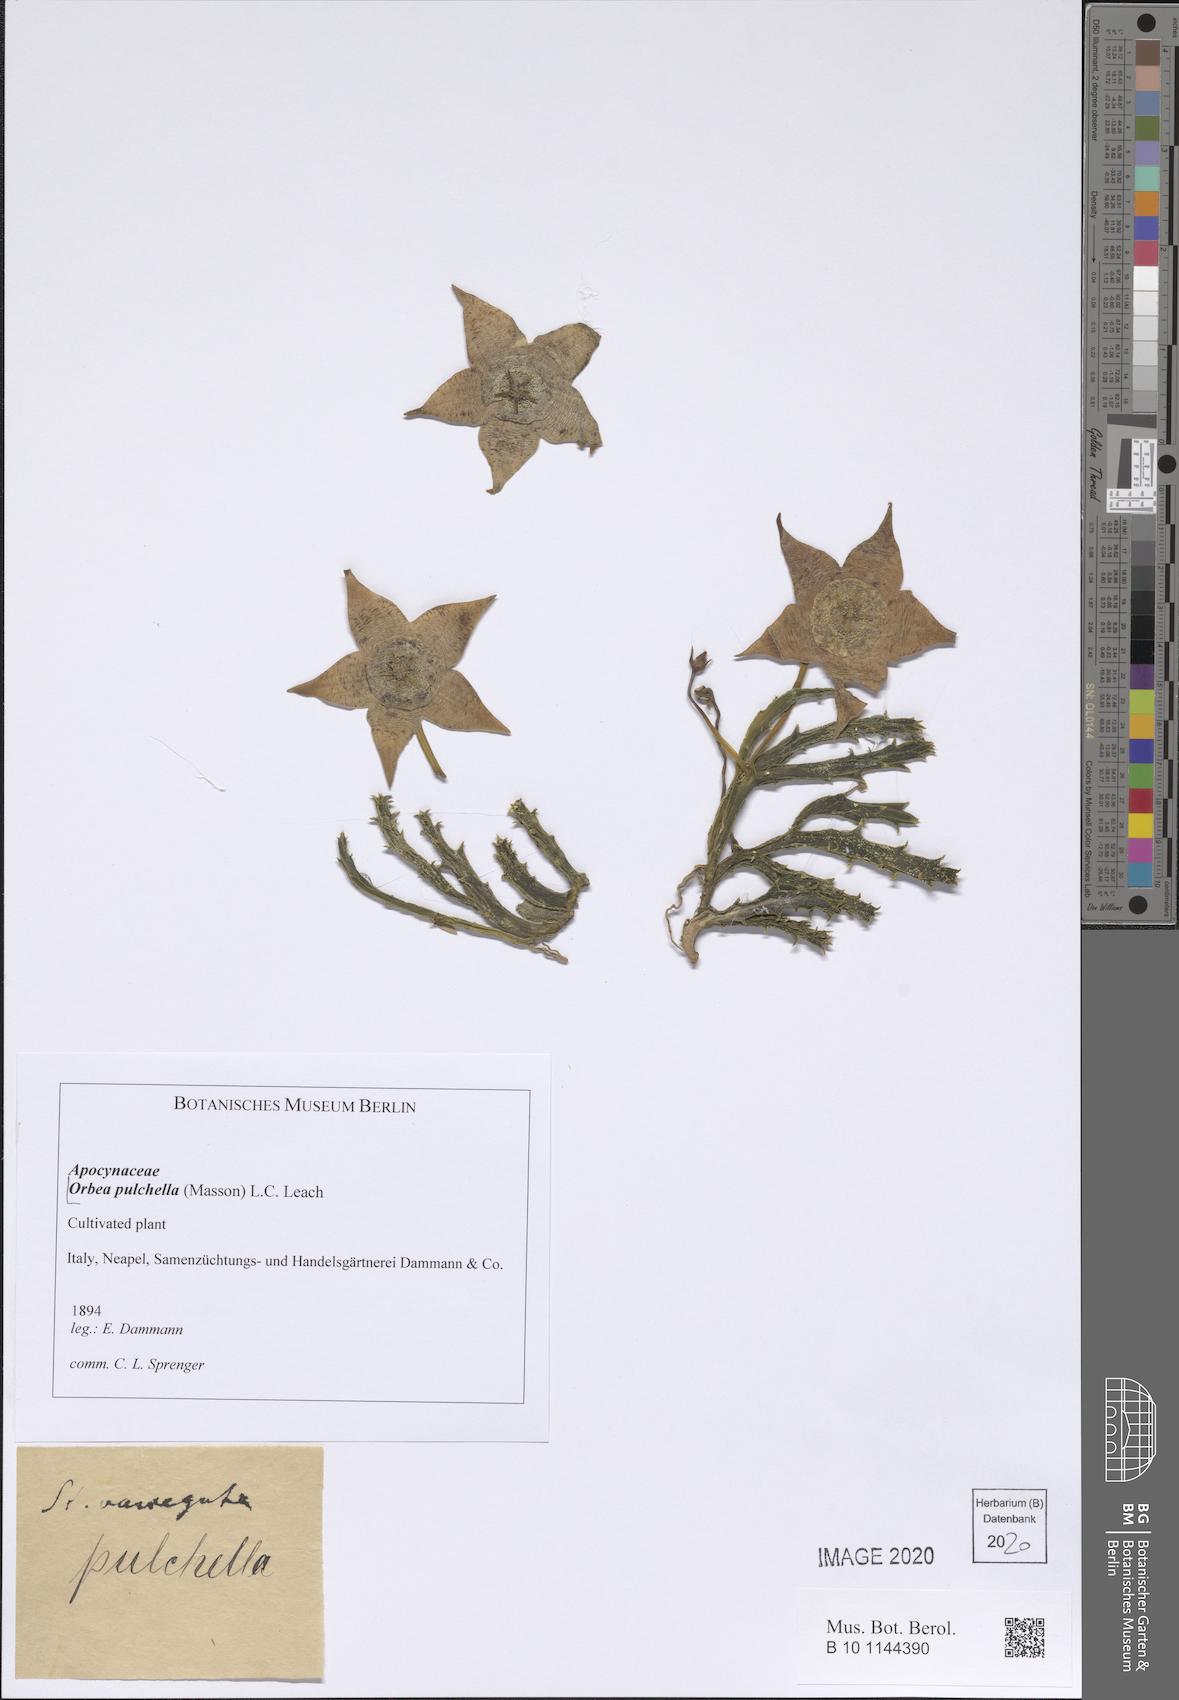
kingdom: Plantae
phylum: Tracheophyta
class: Magnoliopsida
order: Gentianales
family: Apocynaceae
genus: Ceropegia
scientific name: Ceropegia pulchella
